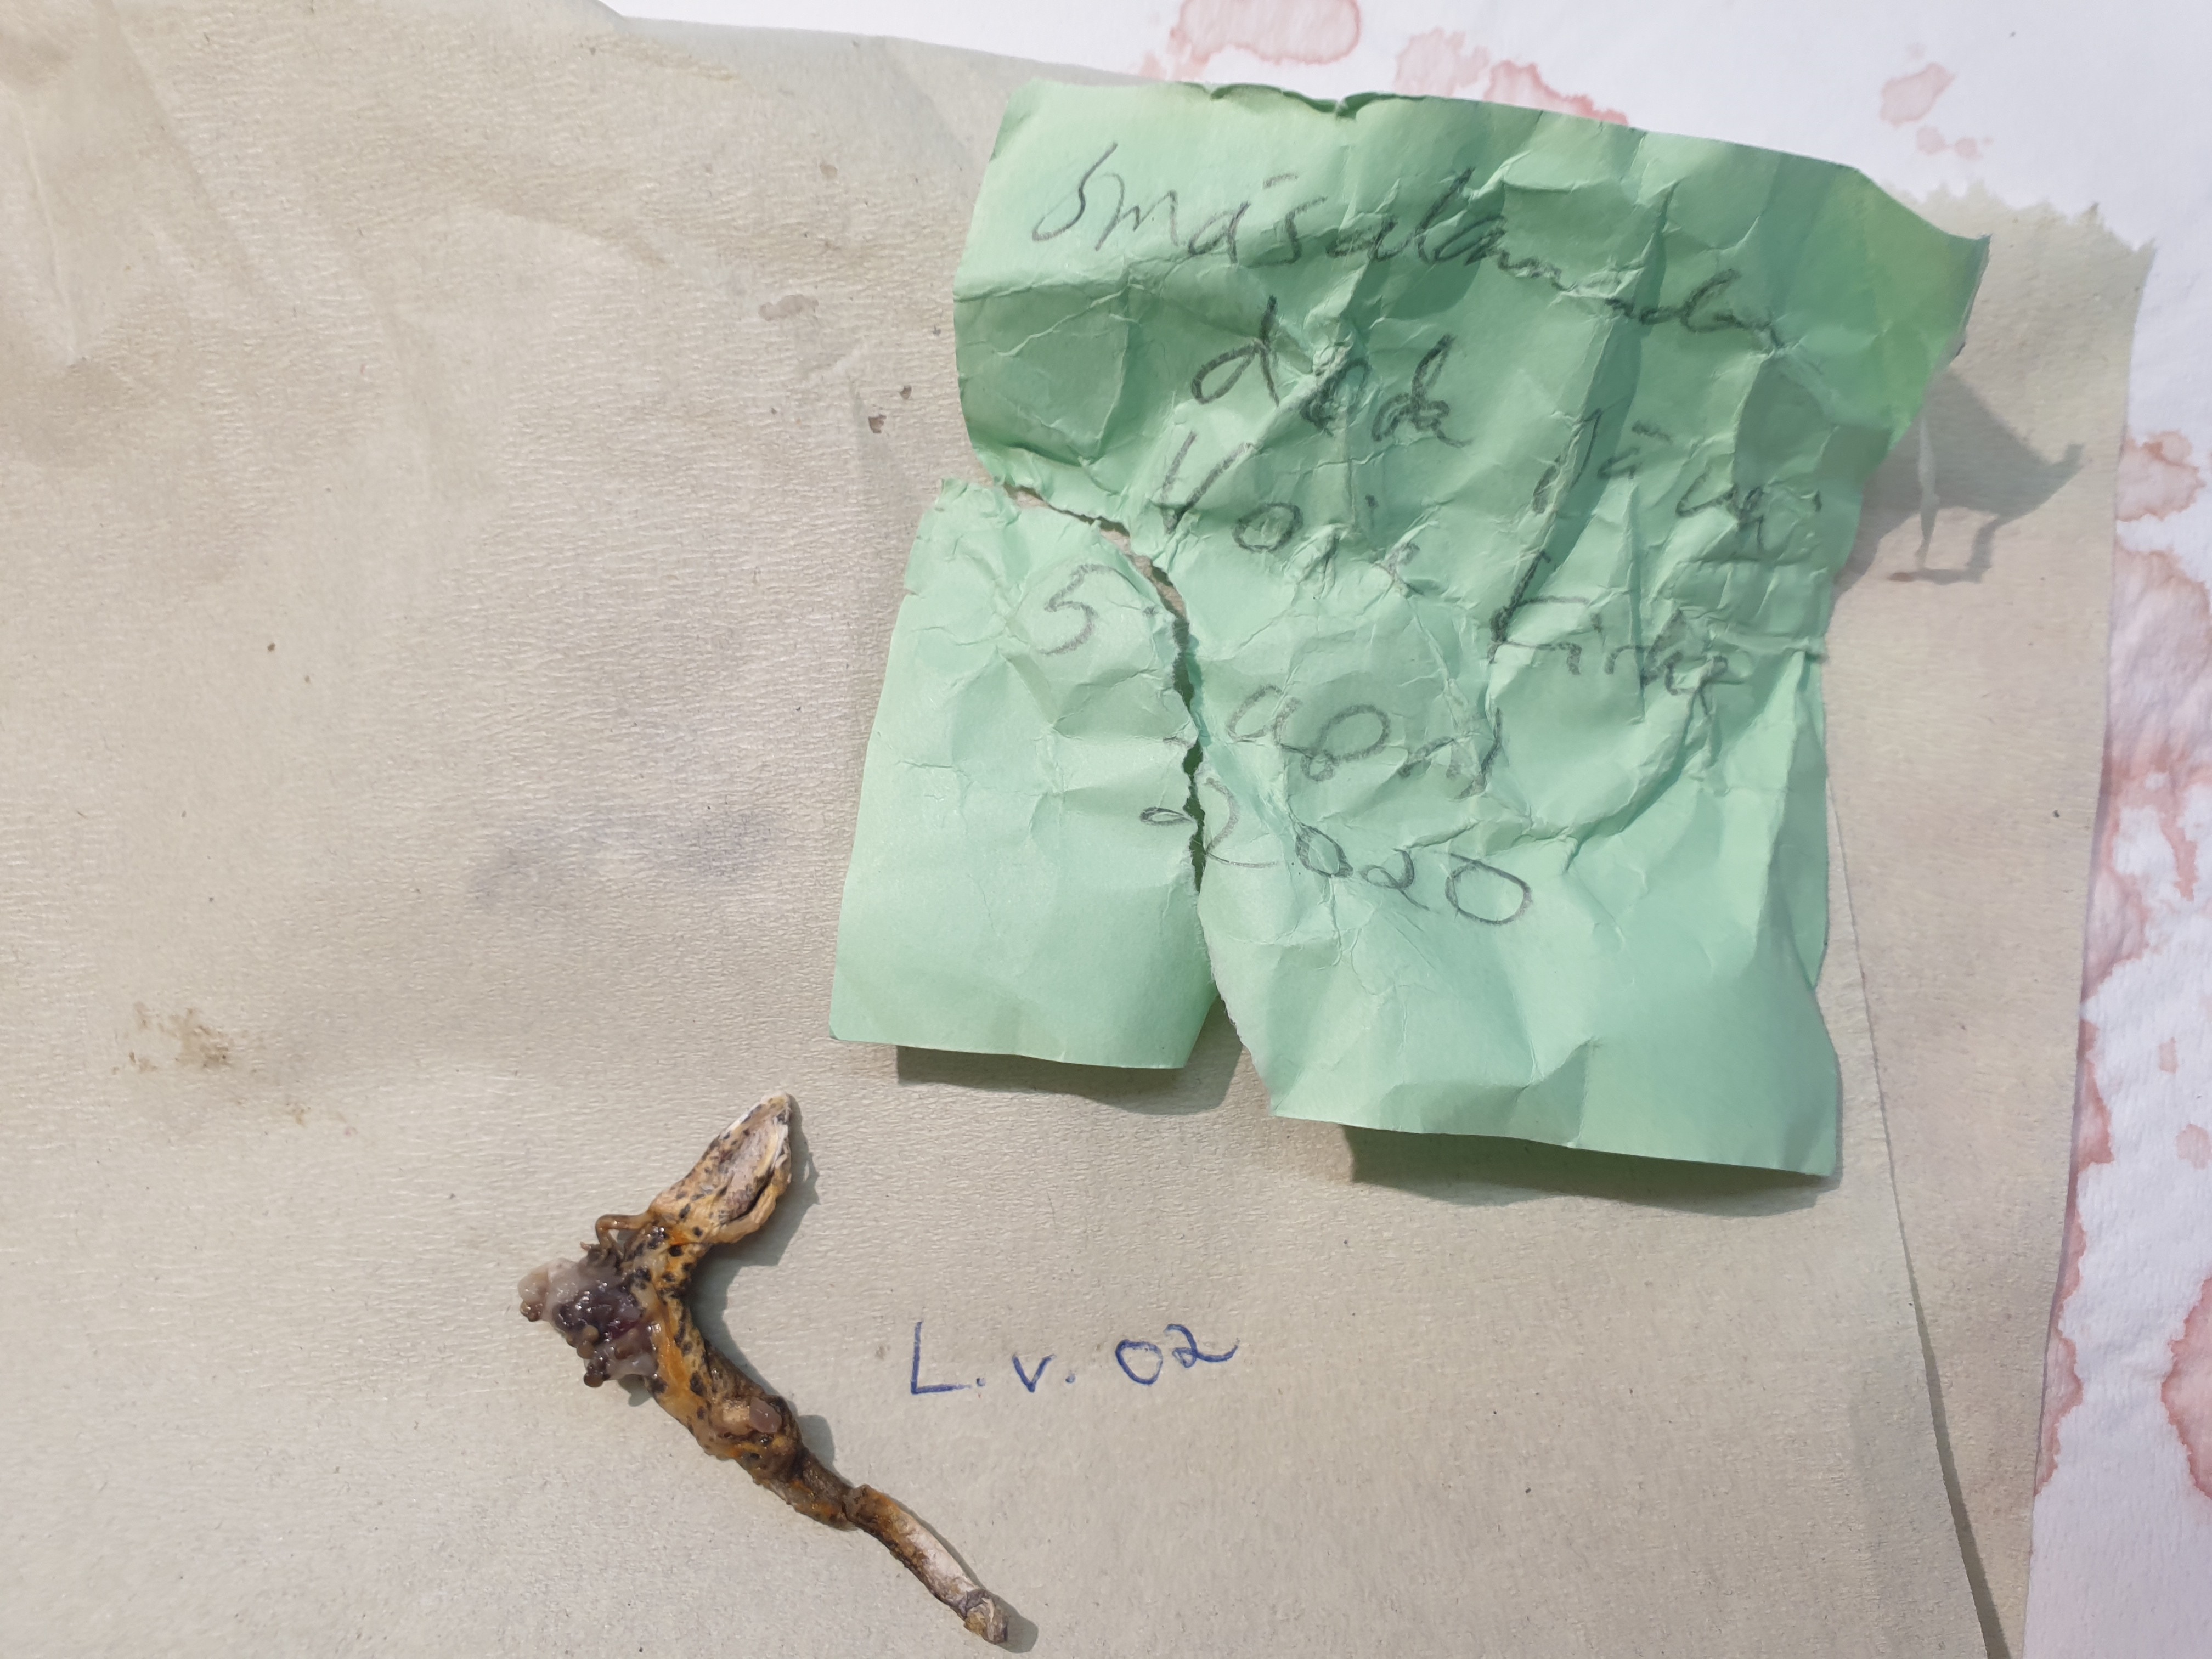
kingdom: Animalia
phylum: Chordata
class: Amphibia
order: Caudata
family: Salamandridae
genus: Lissotriton
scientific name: Lissotriton vulgaris
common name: Smooth newt
